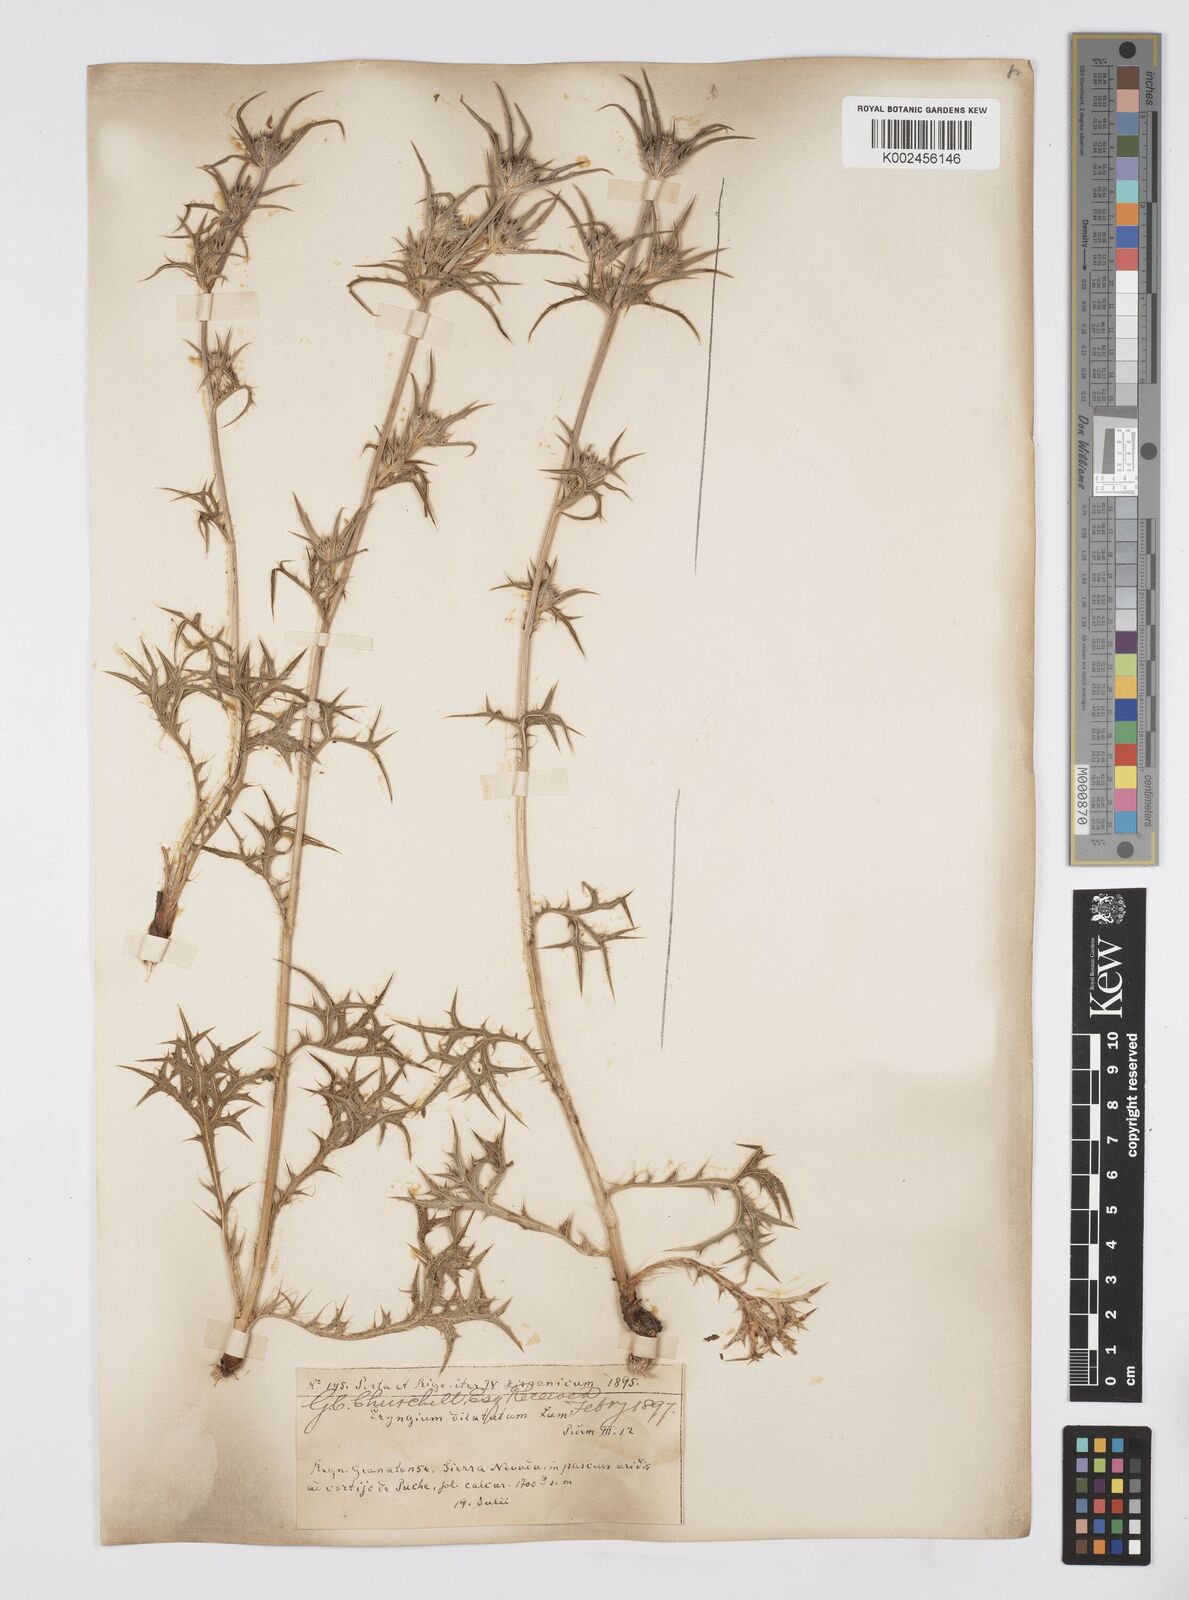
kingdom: Plantae
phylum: Tracheophyta
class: Magnoliopsida
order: Apiales
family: Apiaceae
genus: Eryngium
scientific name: Eryngium dilatatum
